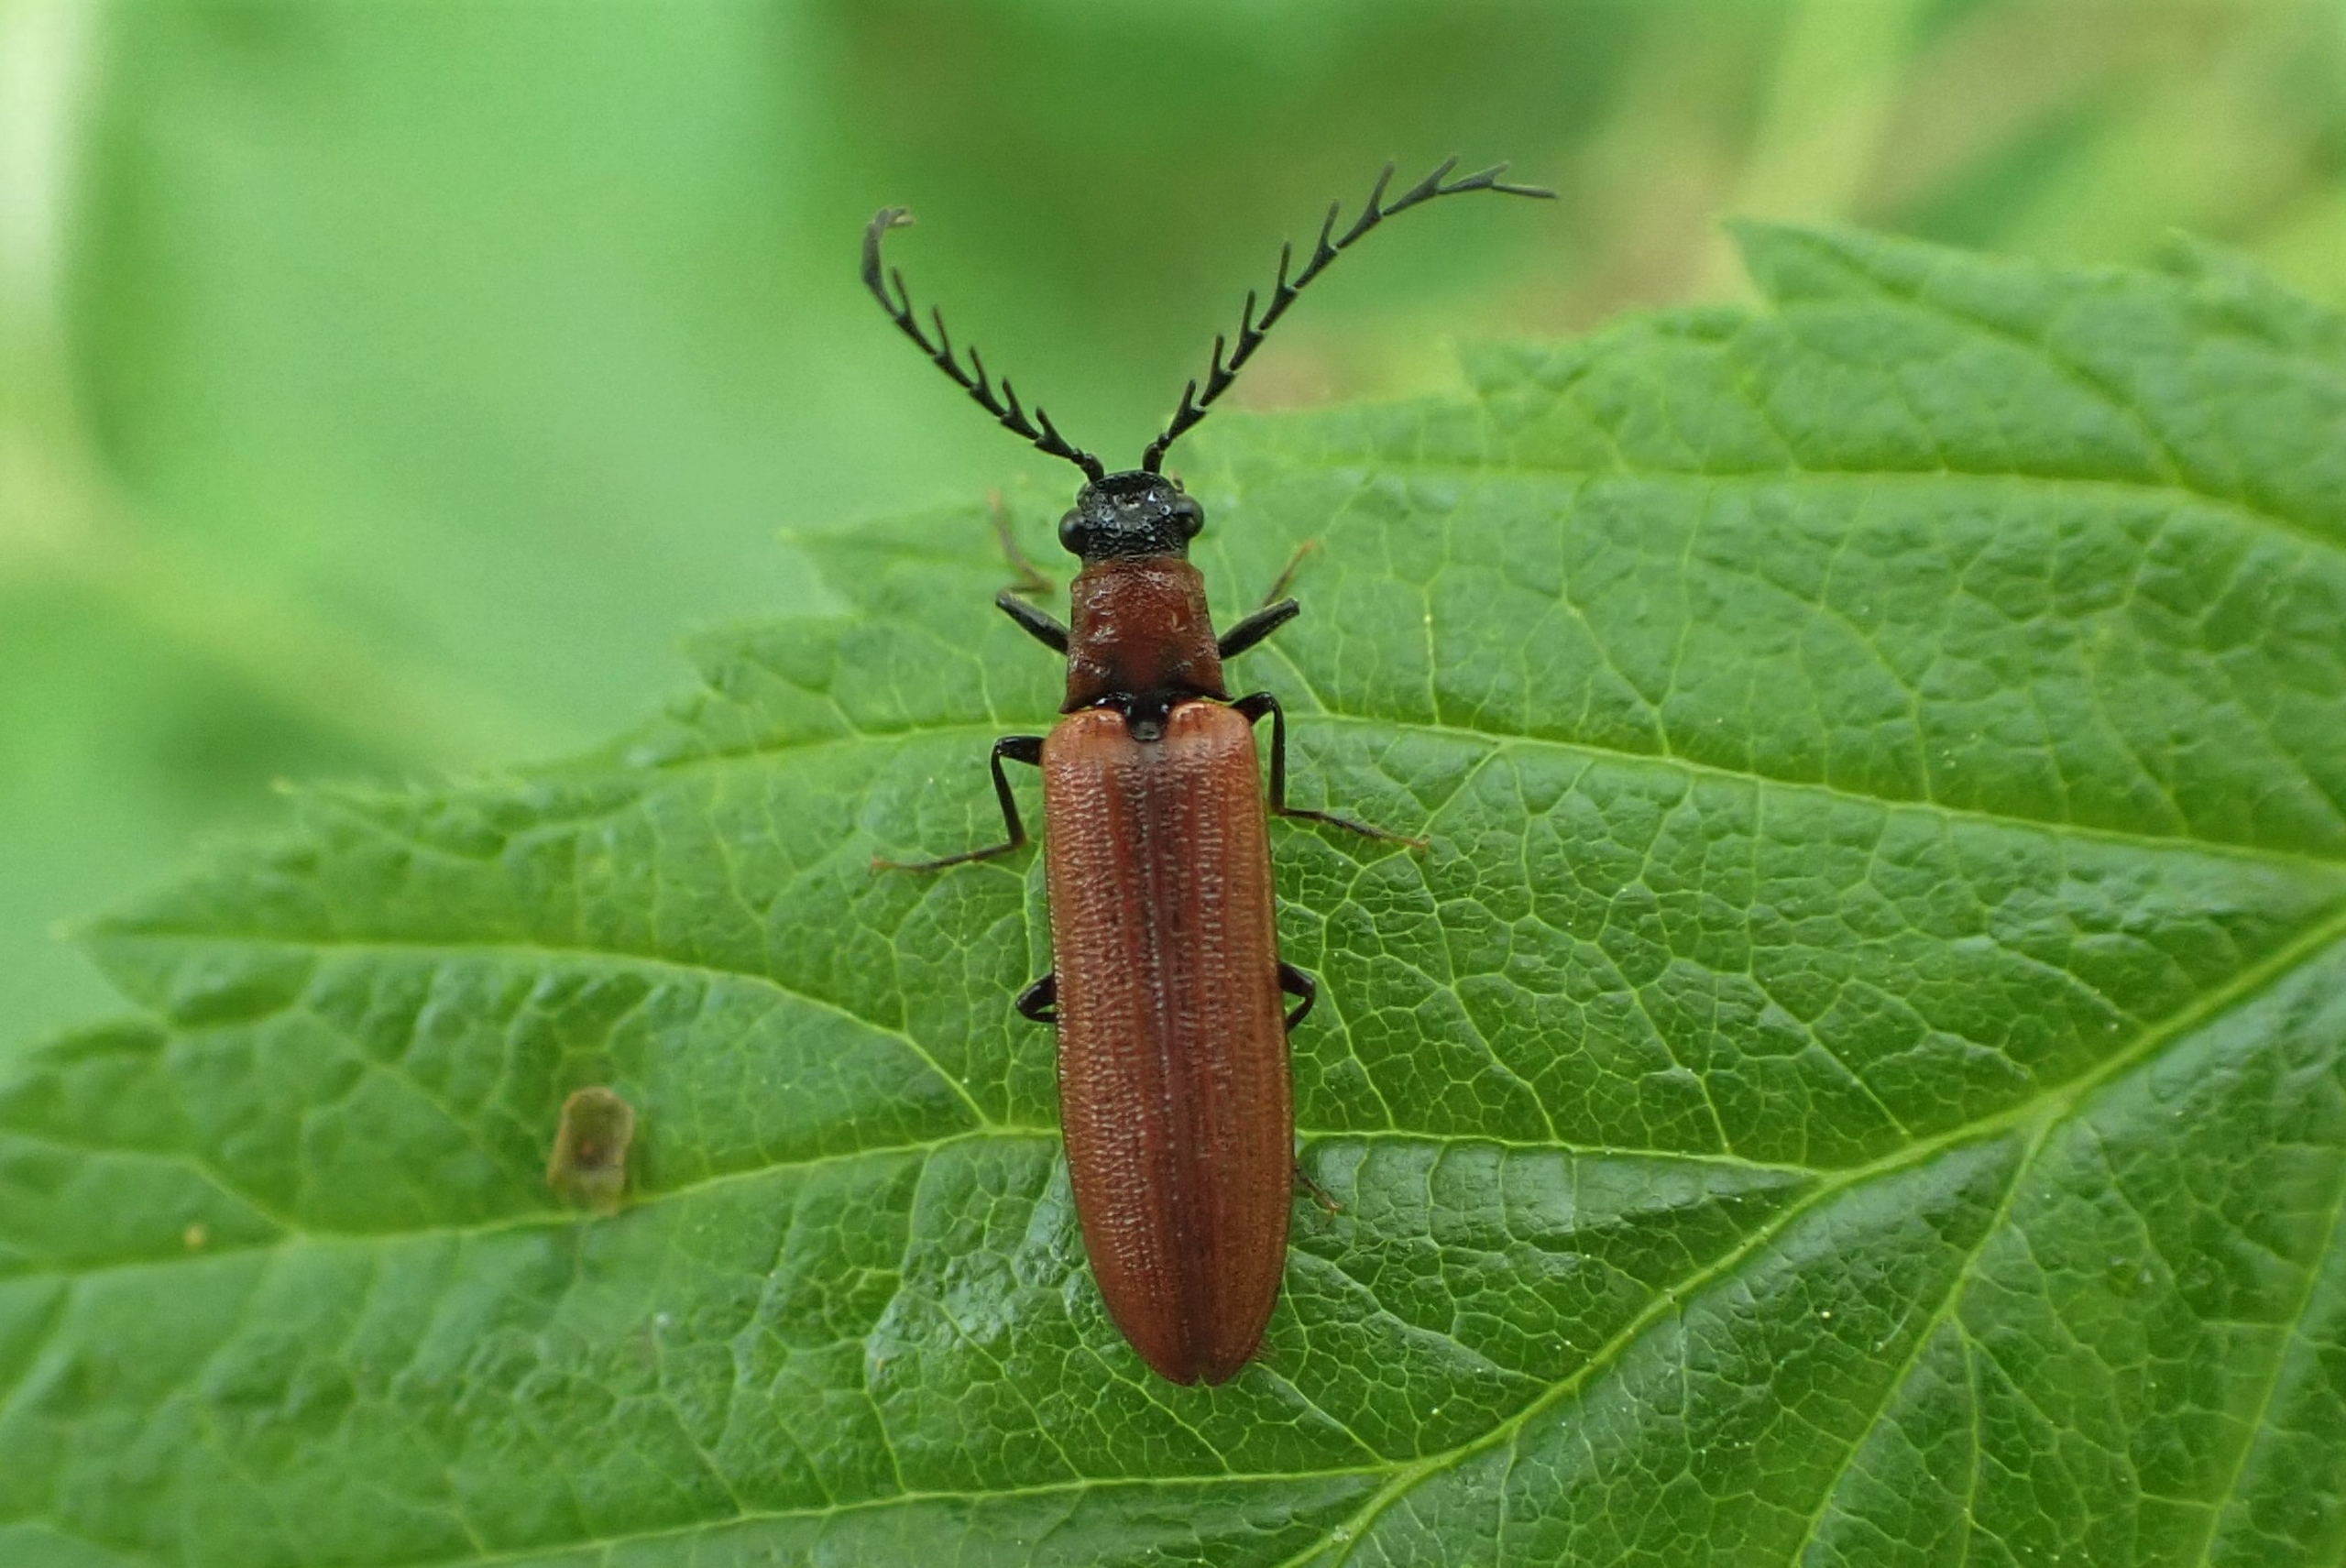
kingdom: Animalia
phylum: Arthropoda
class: Insecta
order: Coleoptera
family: Elateridae
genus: Denticollis
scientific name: Denticollis rubens
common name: Rød sirsmælder
